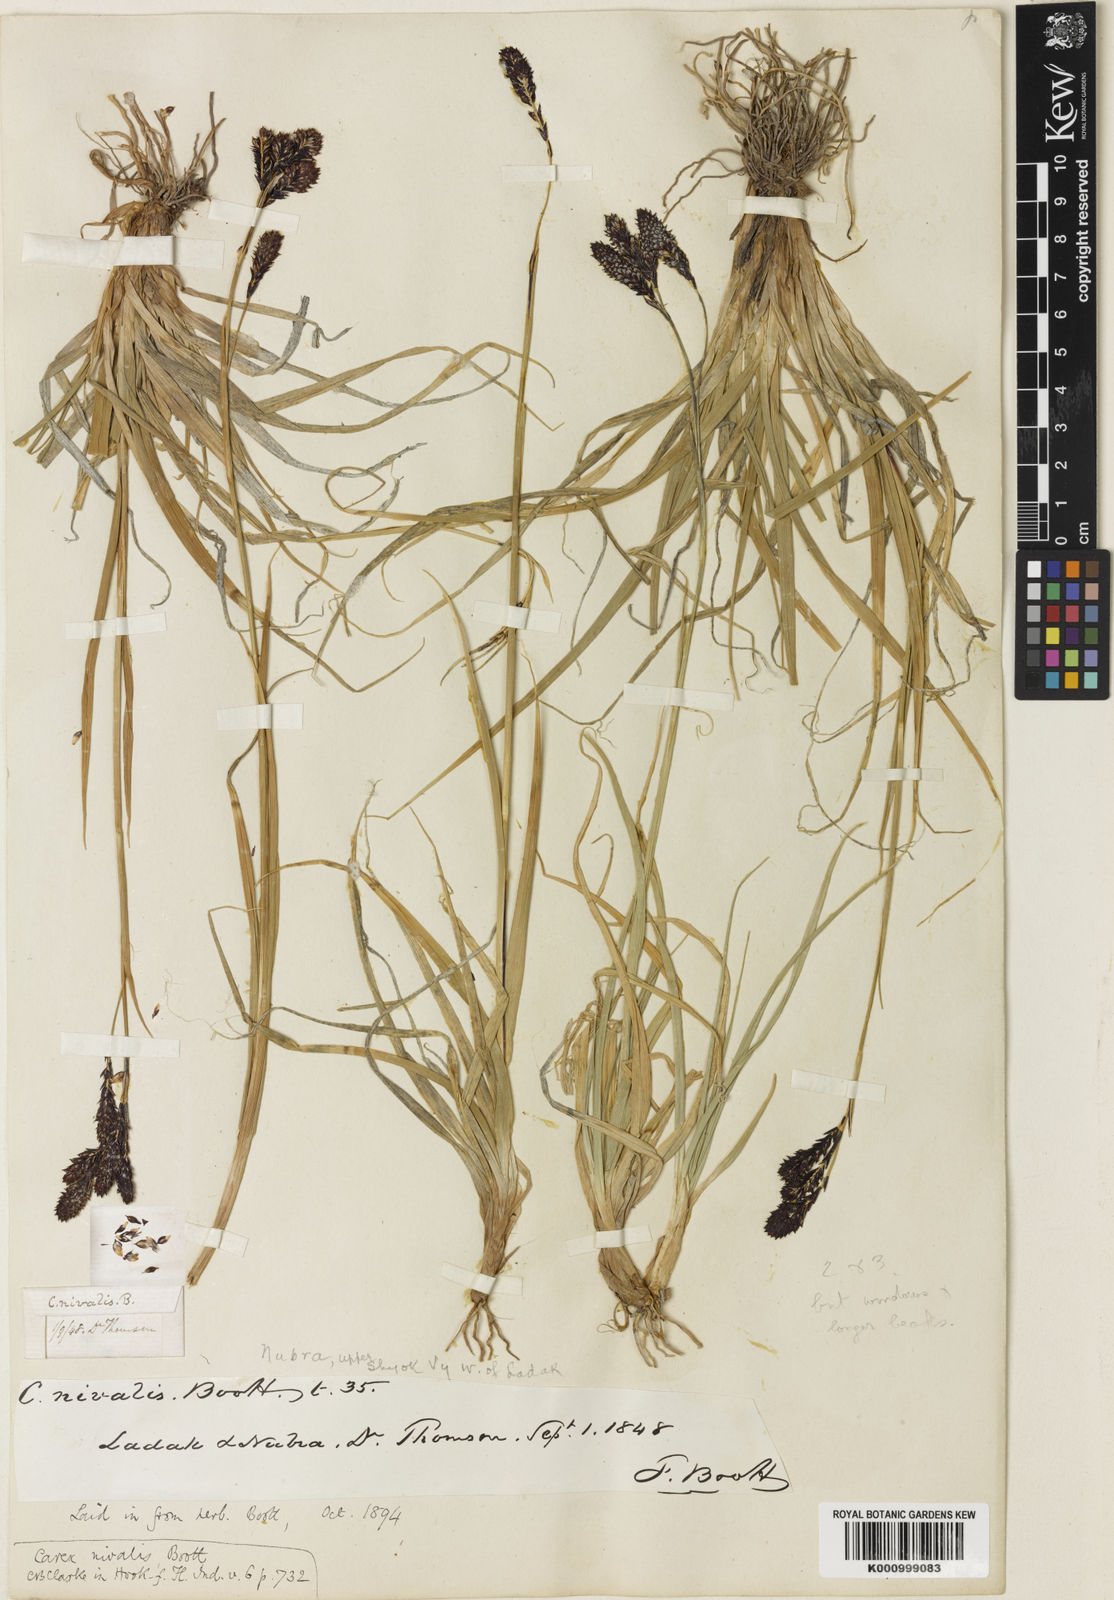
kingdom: Plantae
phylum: Tracheophyta
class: Liliopsida
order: Poales
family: Cyperaceae
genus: Carex
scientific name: Carex nivalis
